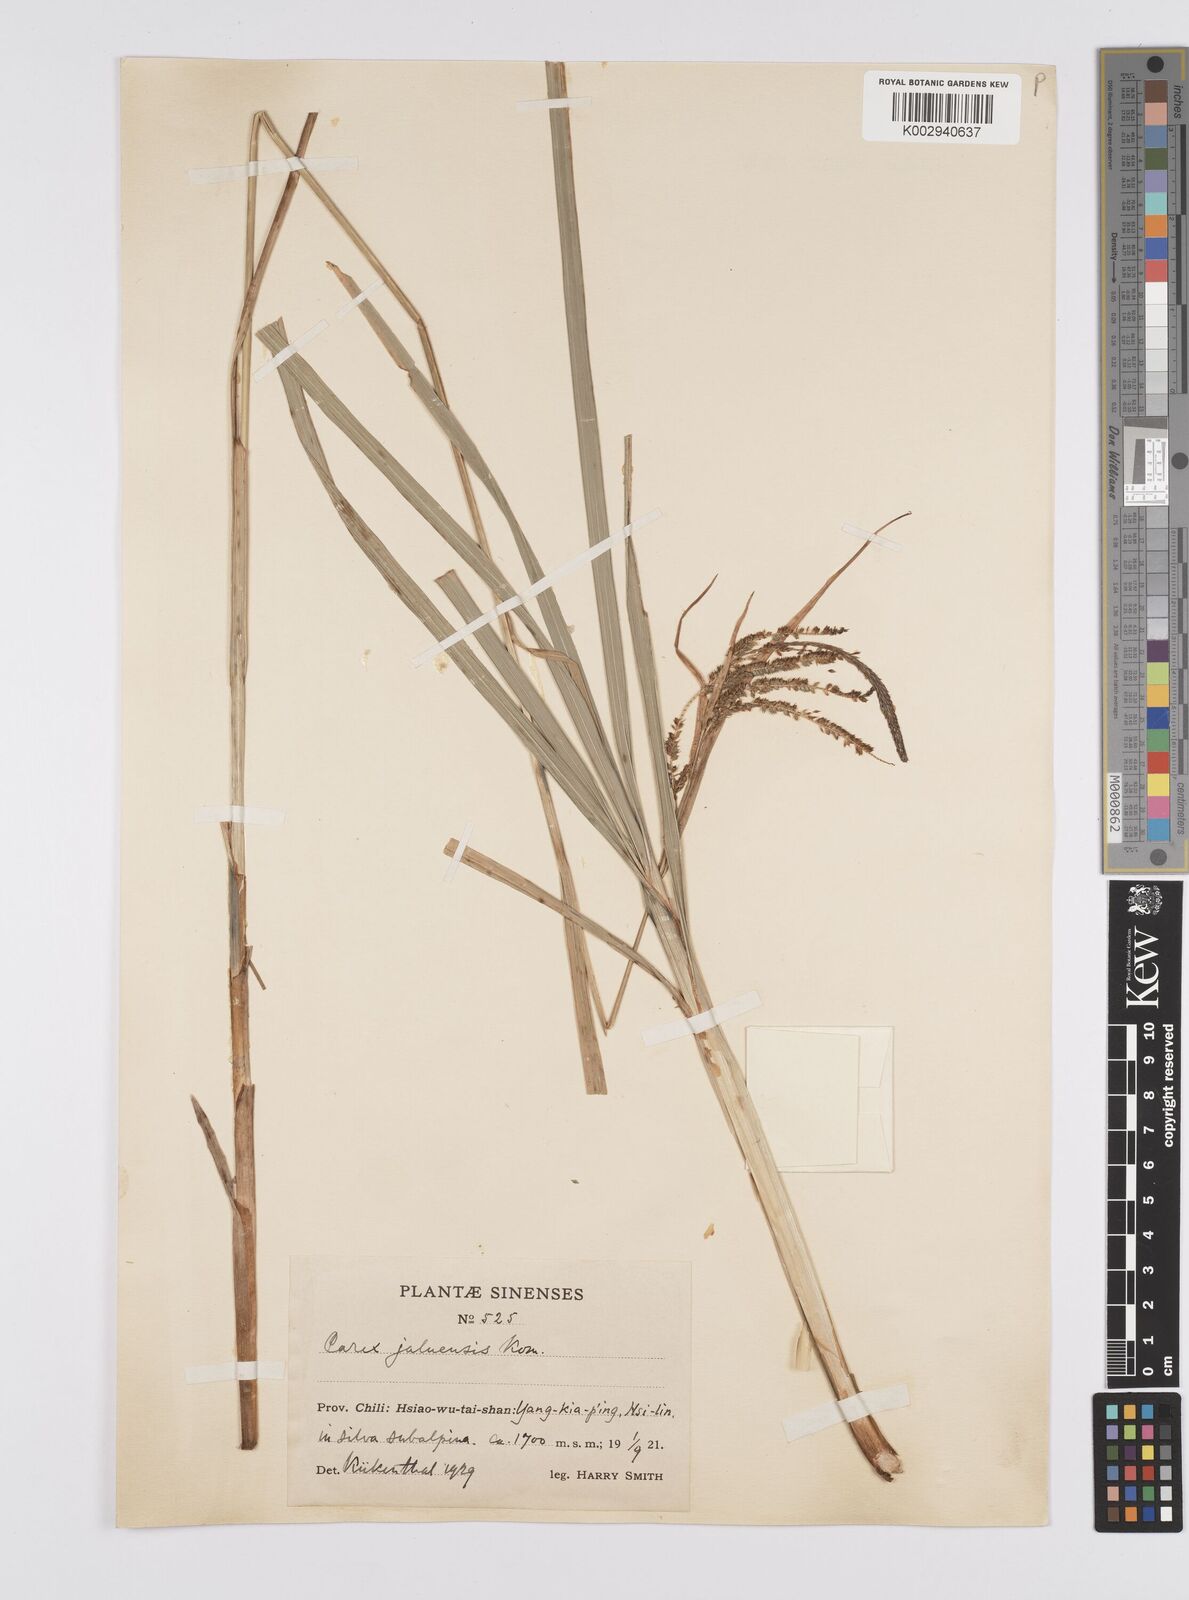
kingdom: Plantae
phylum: Tracheophyta
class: Liliopsida
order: Poales
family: Cyperaceae
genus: Carex
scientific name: Carex jaluensis
